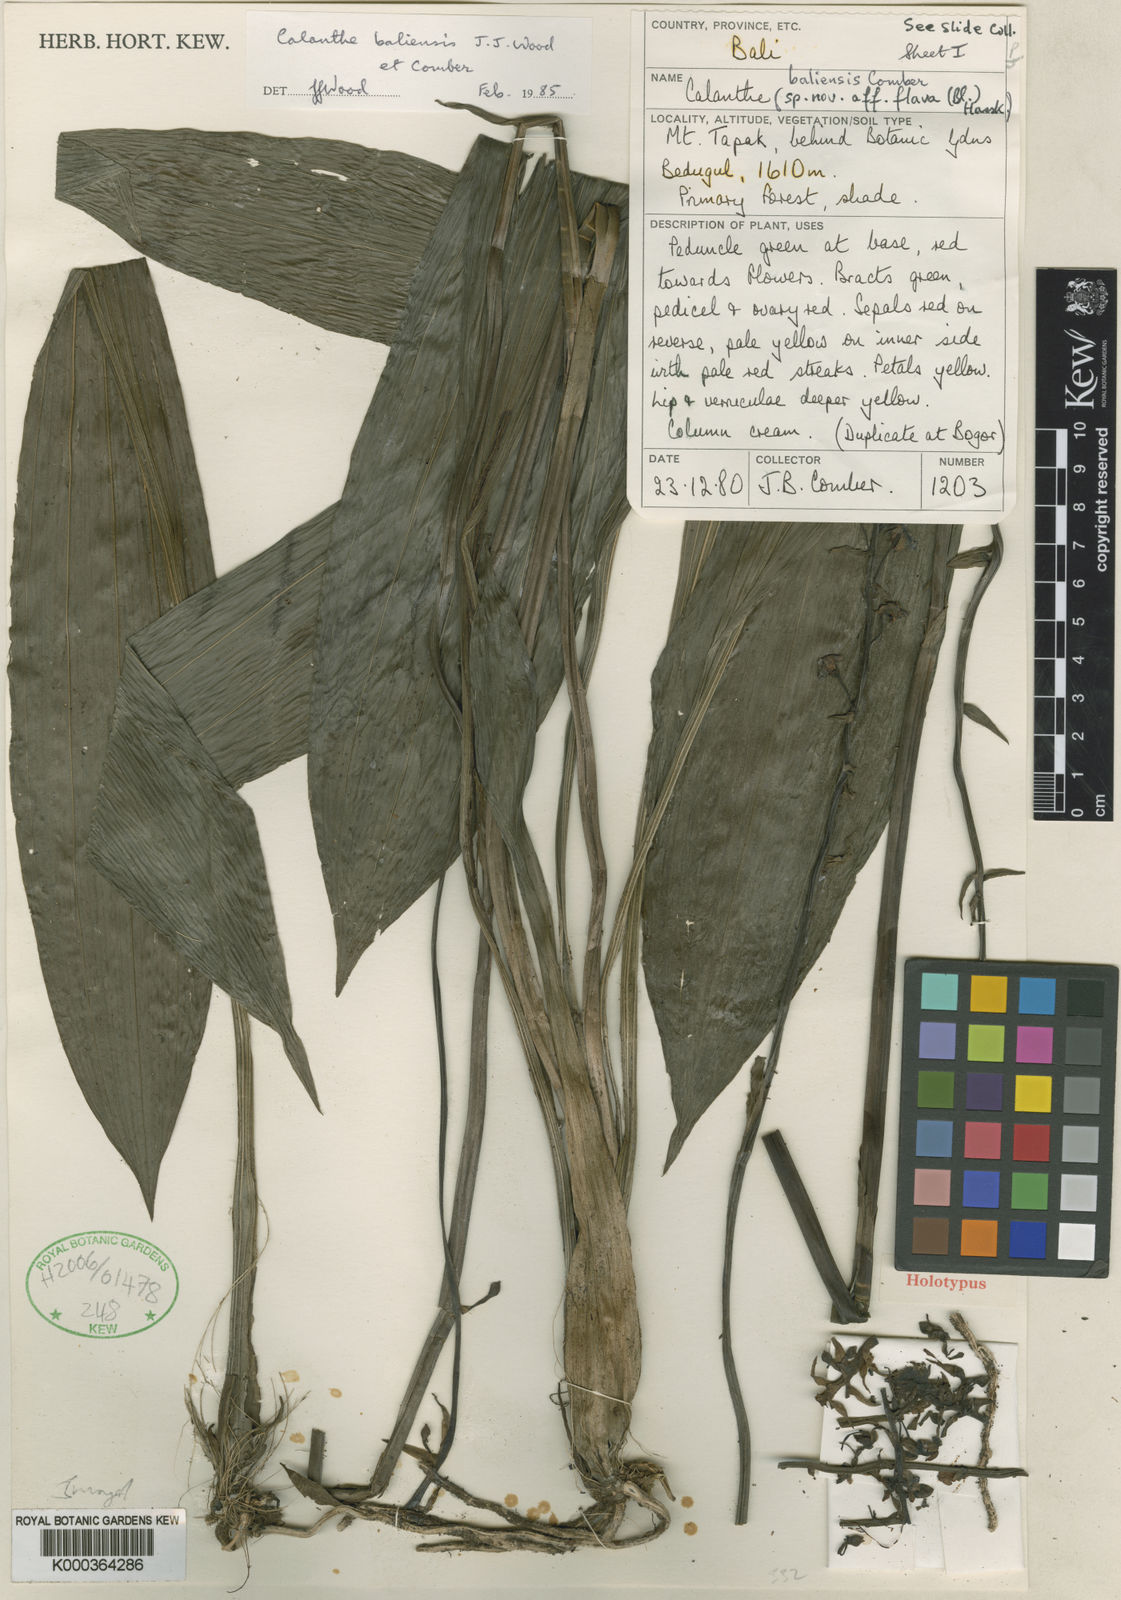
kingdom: Plantae
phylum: Tracheophyta
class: Liliopsida
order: Asparagales
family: Orchidaceae
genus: Calanthe
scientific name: Calanthe baliensis
